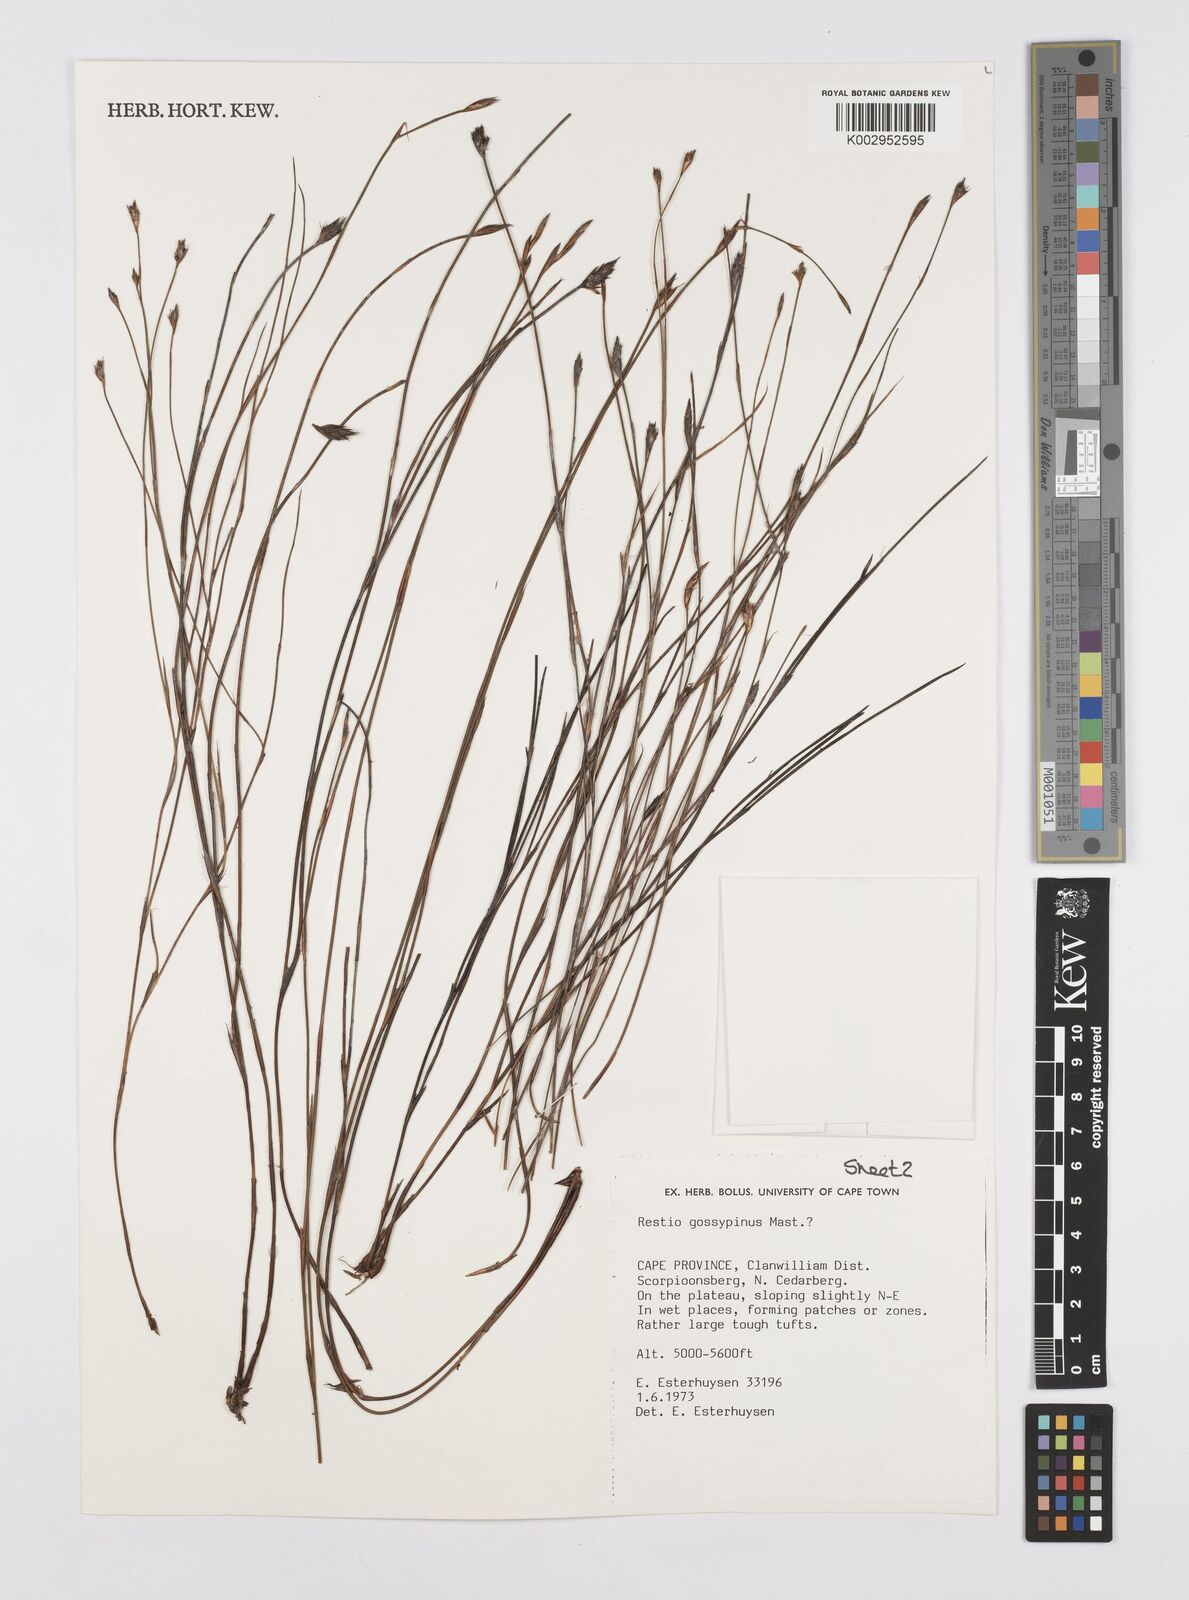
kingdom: Plantae
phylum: Tracheophyta
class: Liliopsida
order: Poales
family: Restionaceae
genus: Restio
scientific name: Restio gossypinus
